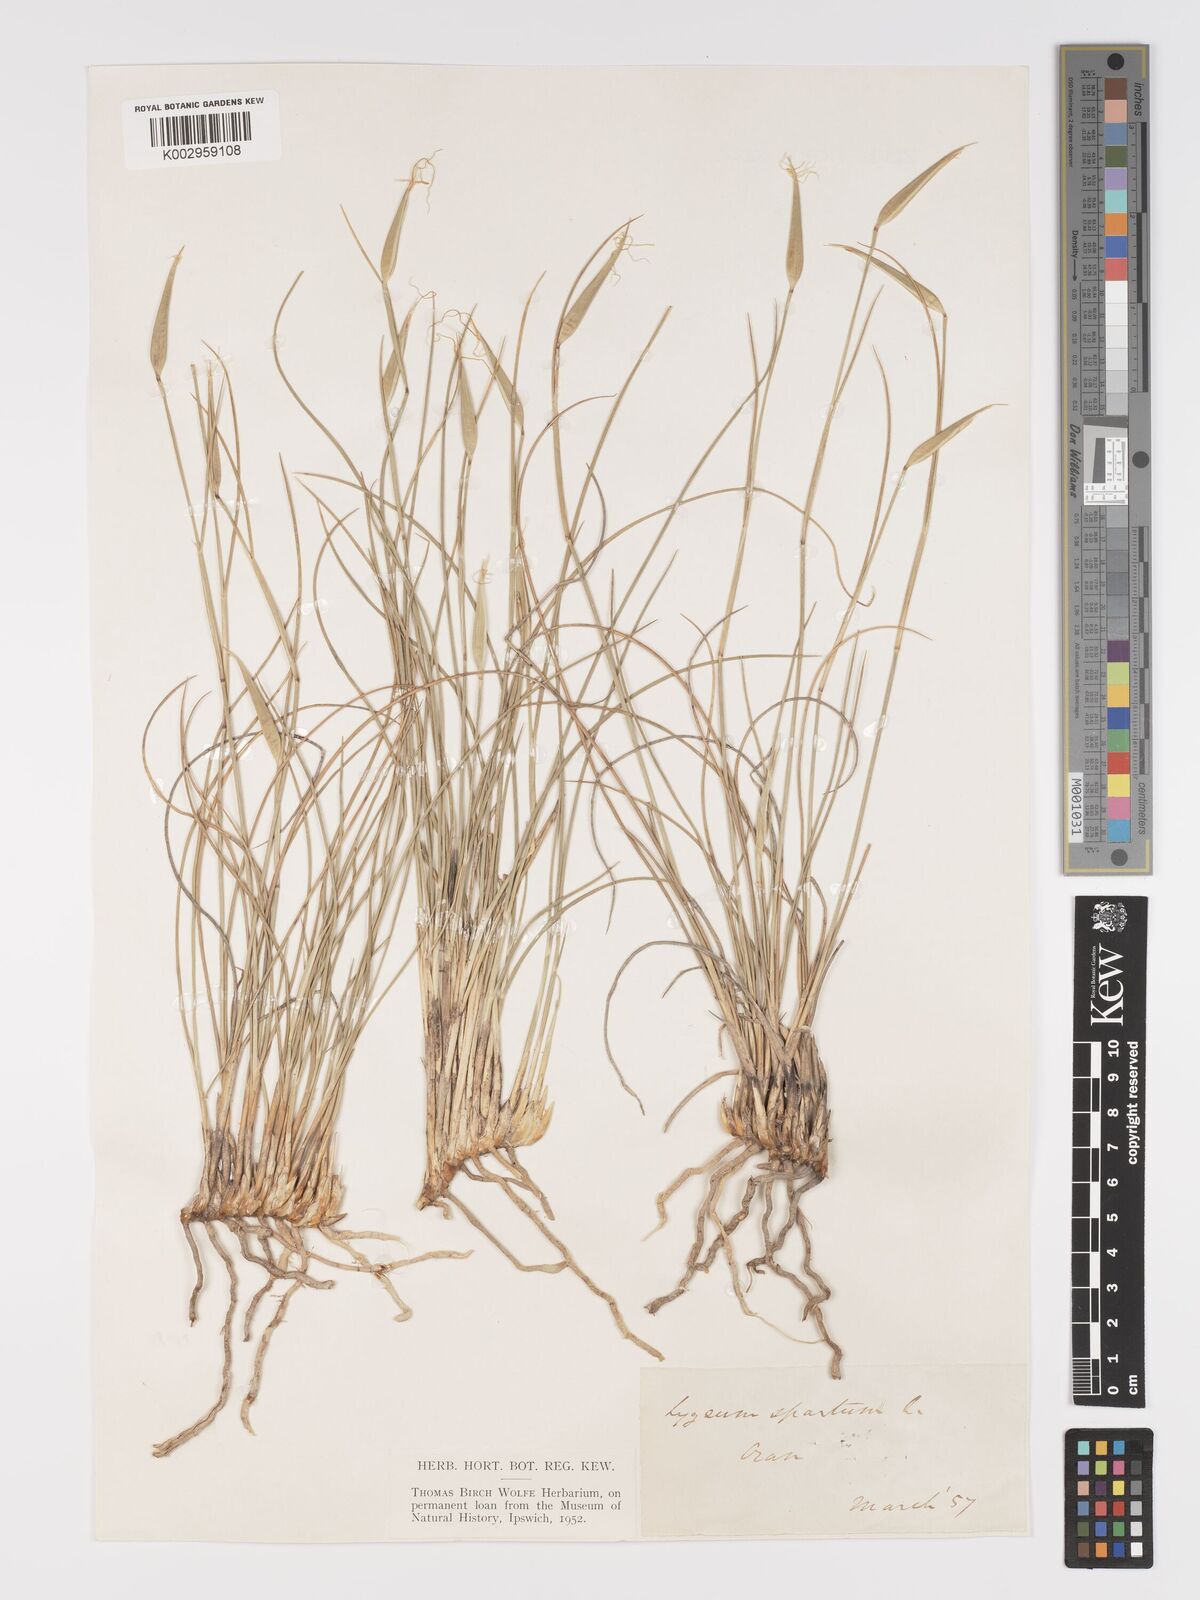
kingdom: Plantae
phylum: Tracheophyta
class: Liliopsida
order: Poales
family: Poaceae
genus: Lygeum
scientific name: Lygeum spartum
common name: Albardine
